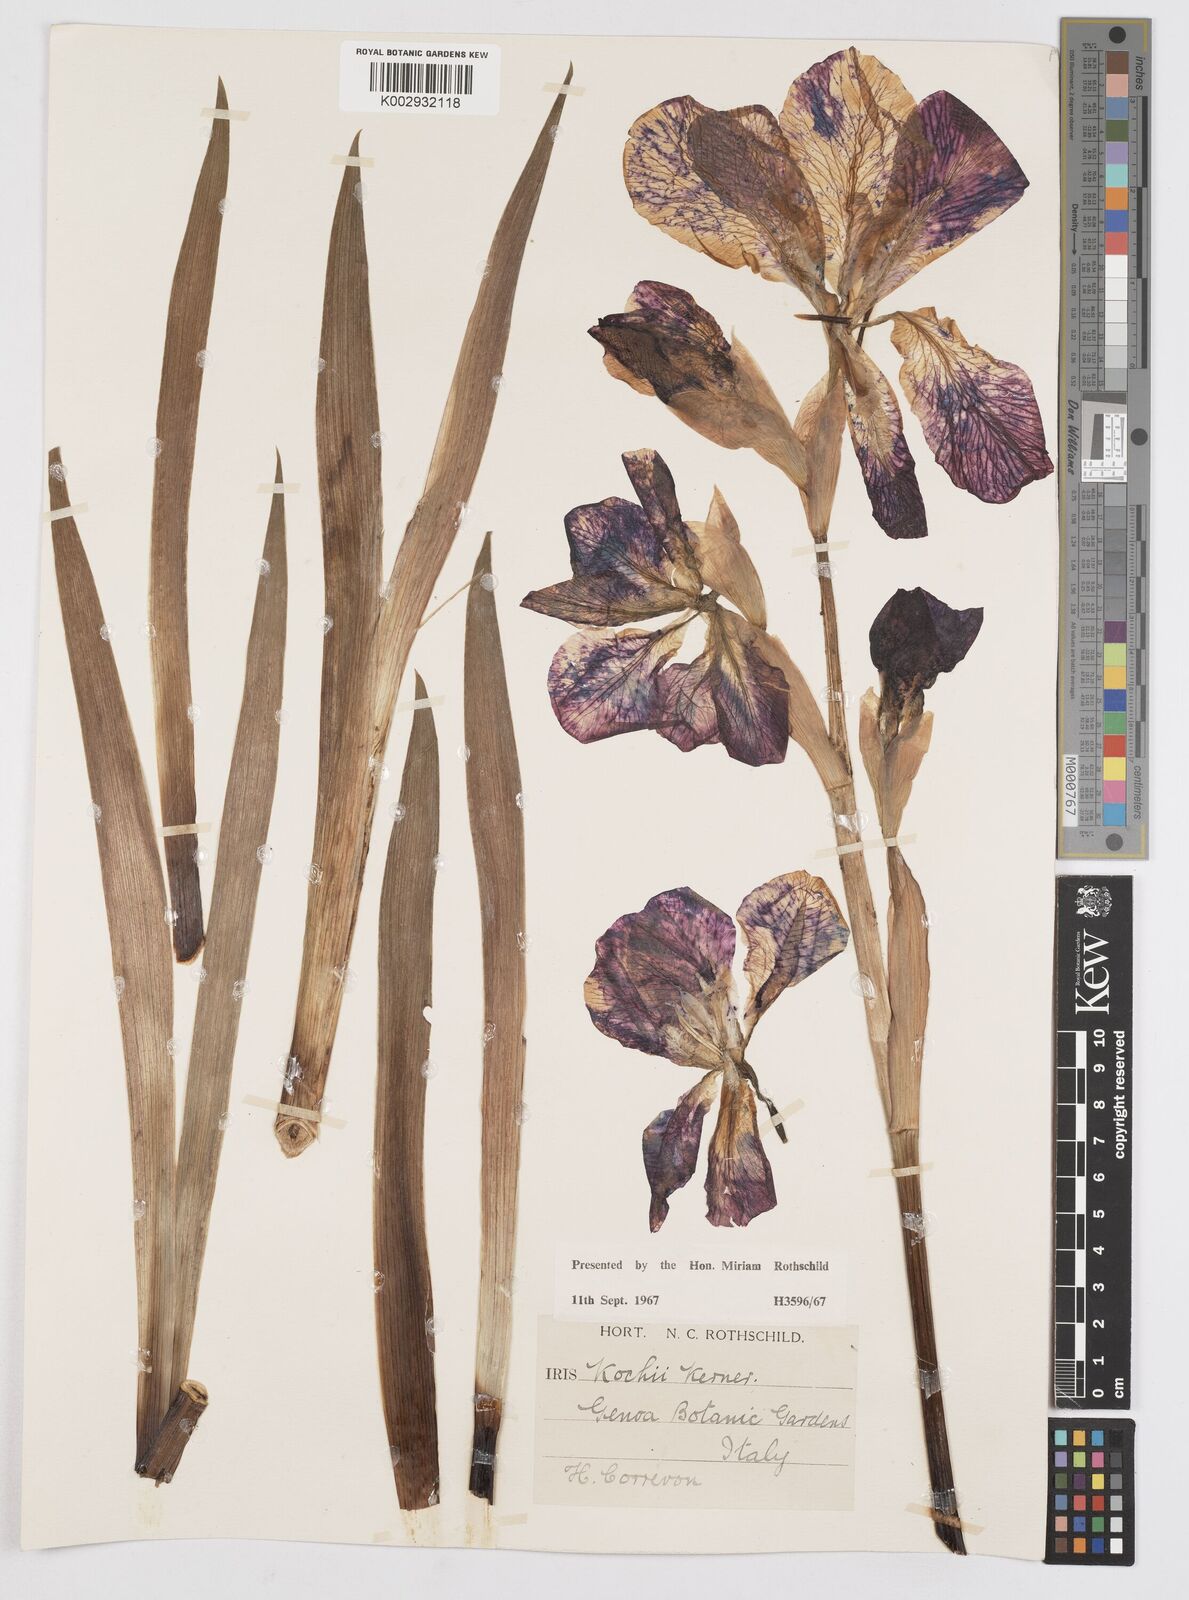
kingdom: Plantae
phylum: Tracheophyta
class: Liliopsida
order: Asparagales
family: Iridaceae
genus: Iris
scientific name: Iris kochii
